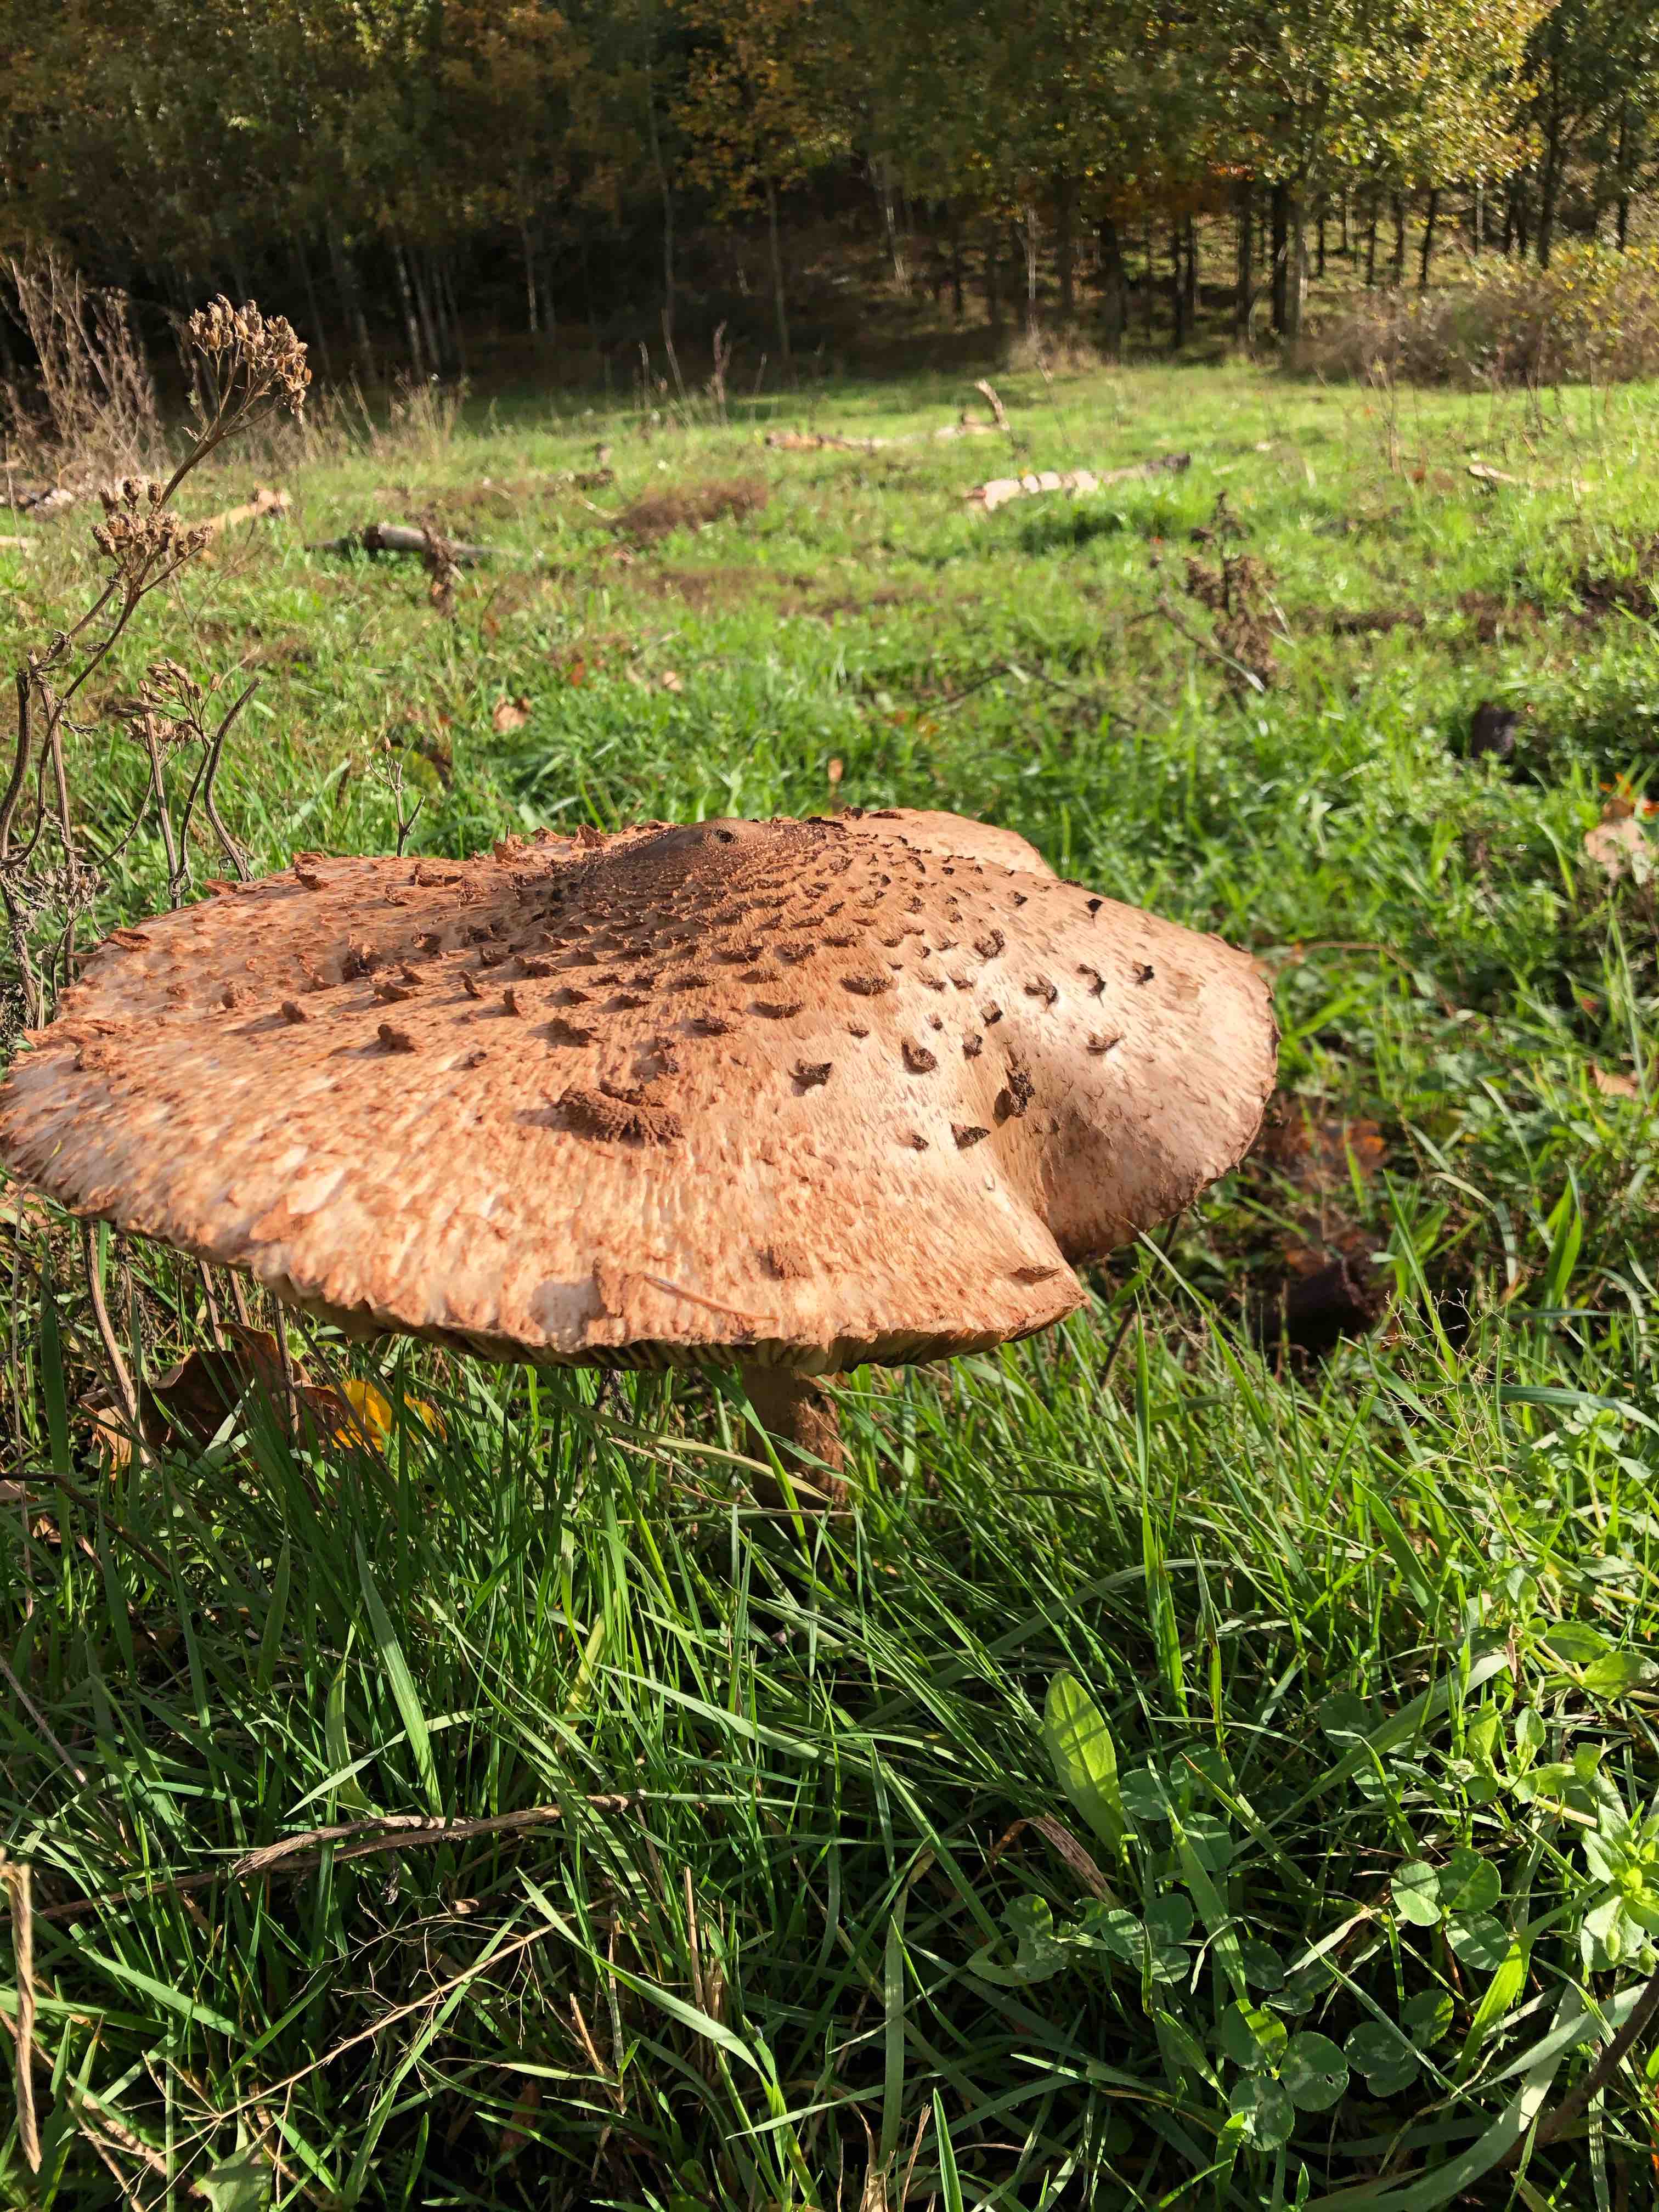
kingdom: Fungi
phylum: Basidiomycota
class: Agaricomycetes
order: Agaricales
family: Agaricaceae
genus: Macrolepiota
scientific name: Macrolepiota procera
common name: stor kæmpeparasolhat
